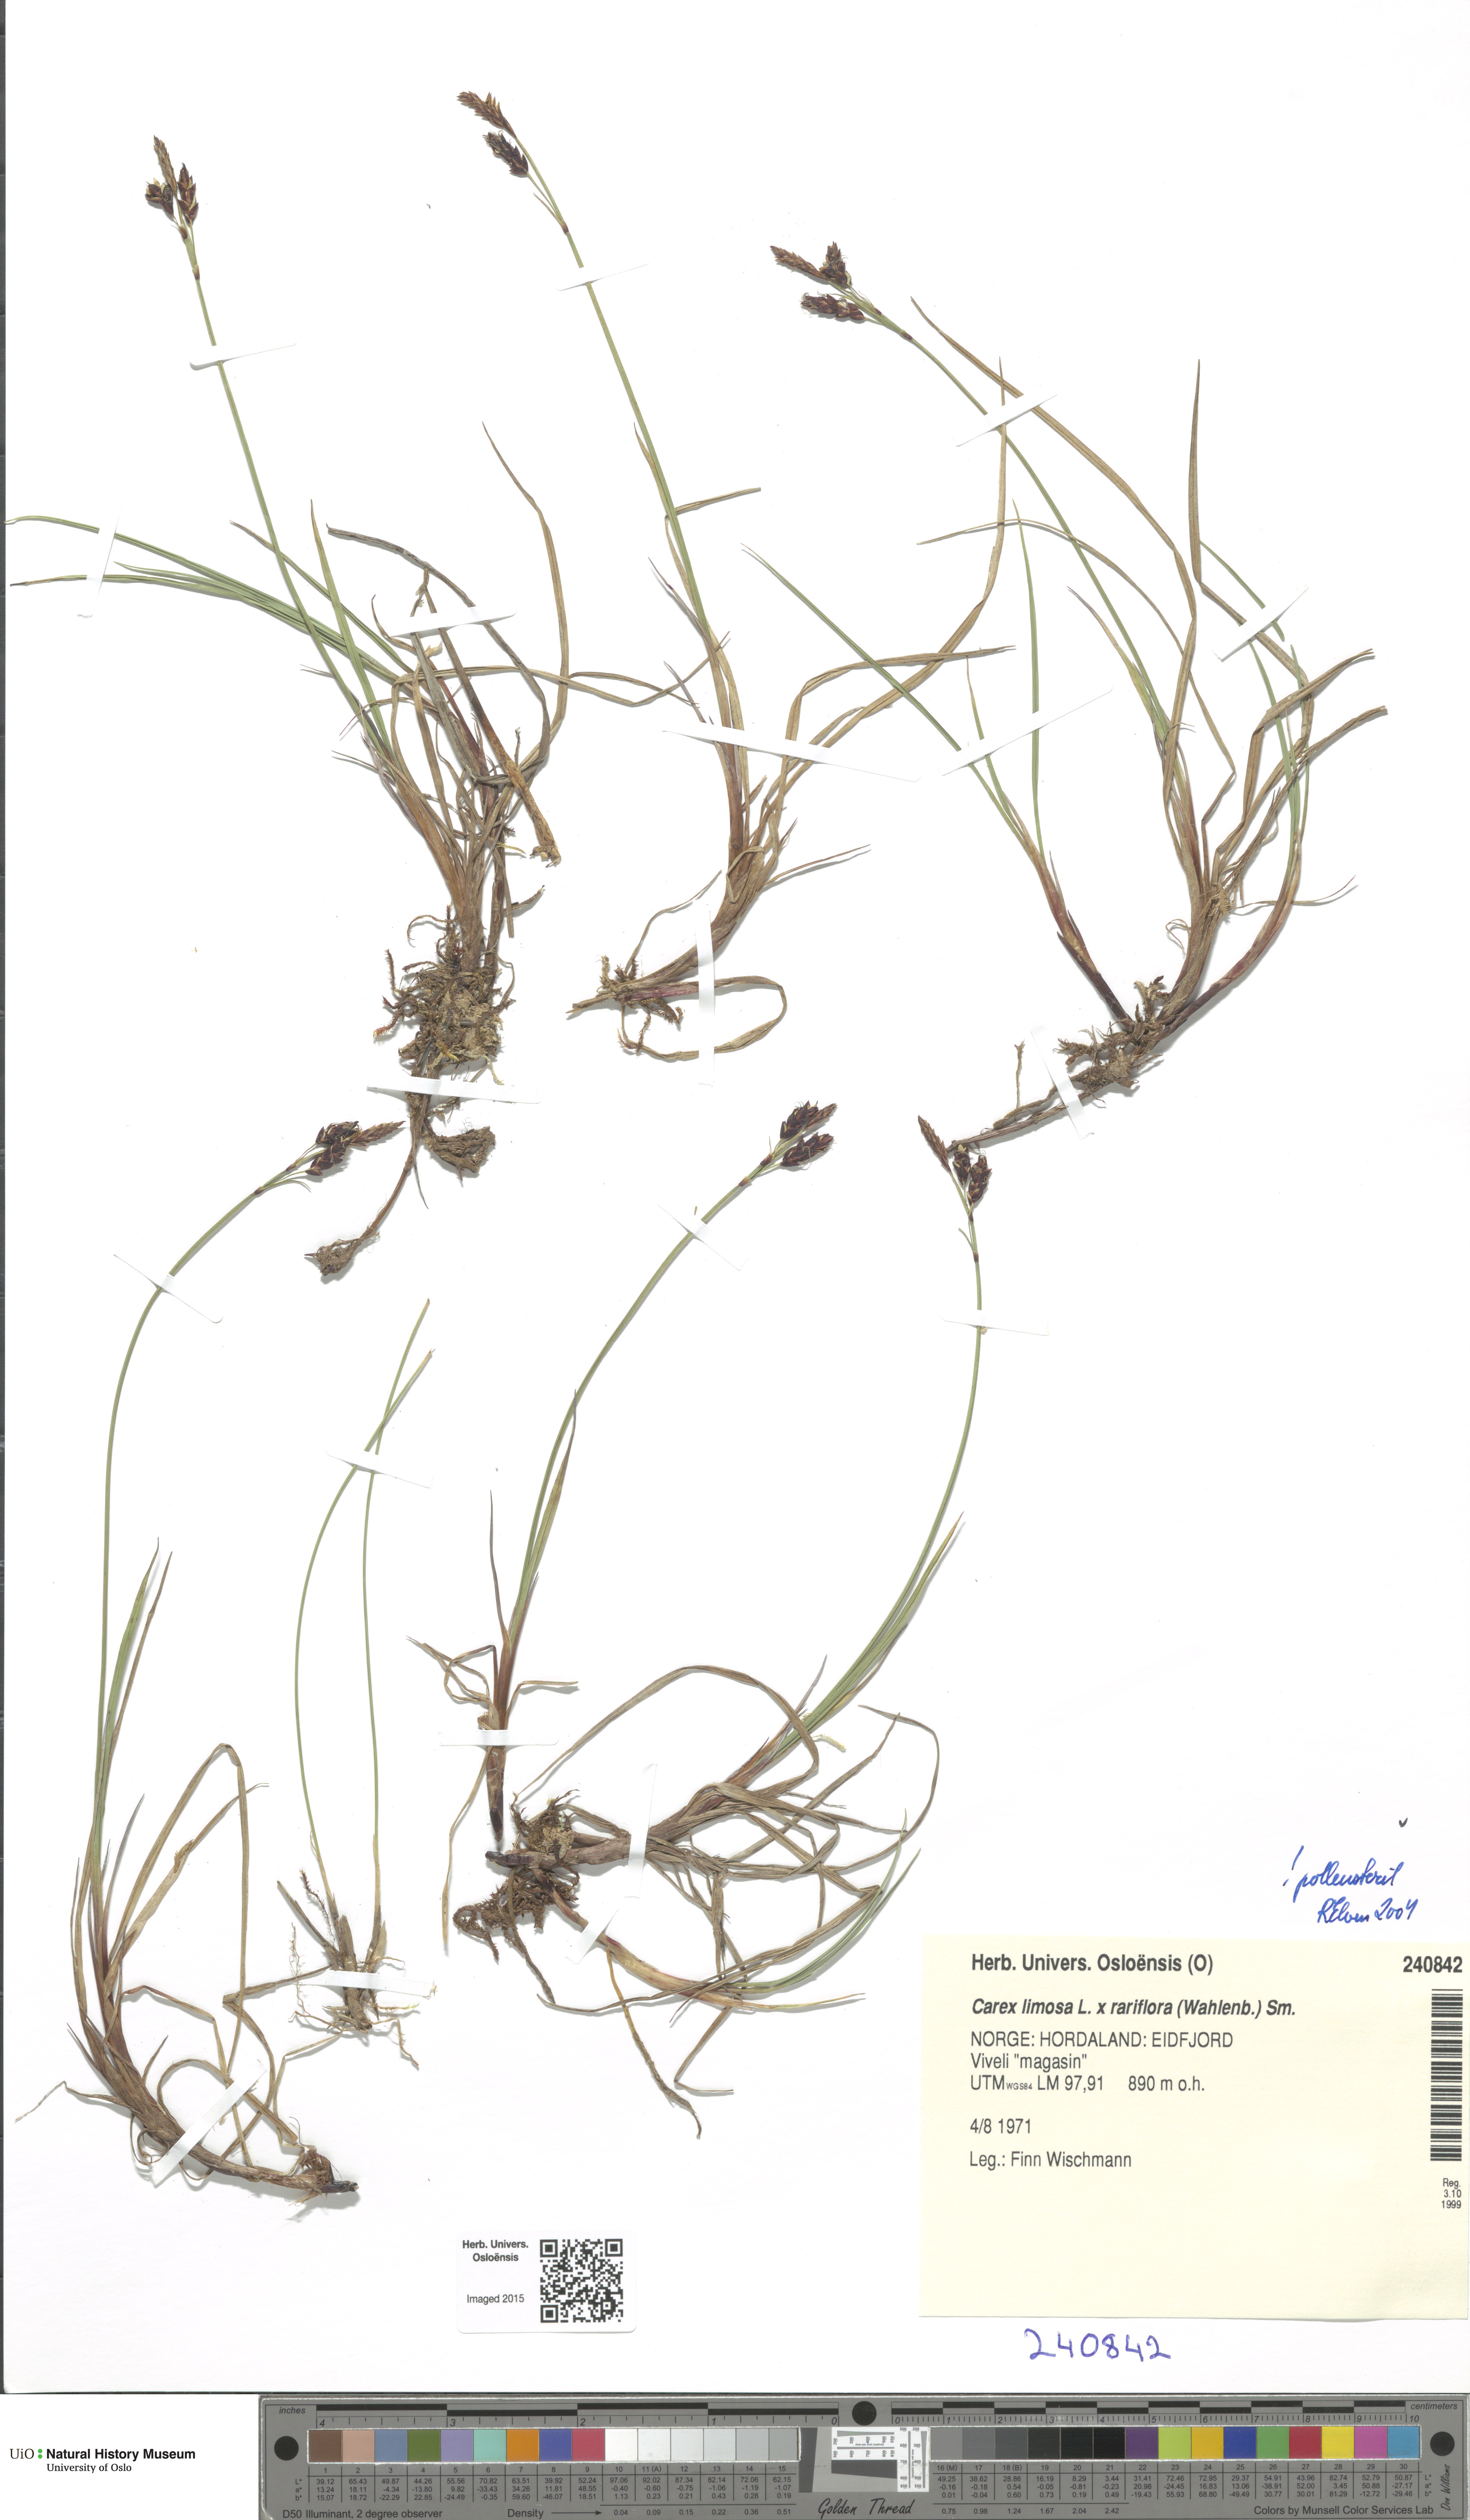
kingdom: Plantae
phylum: Tracheophyta
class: Liliopsida
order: Poales
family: Cyperaceae
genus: Carex
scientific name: Carex
